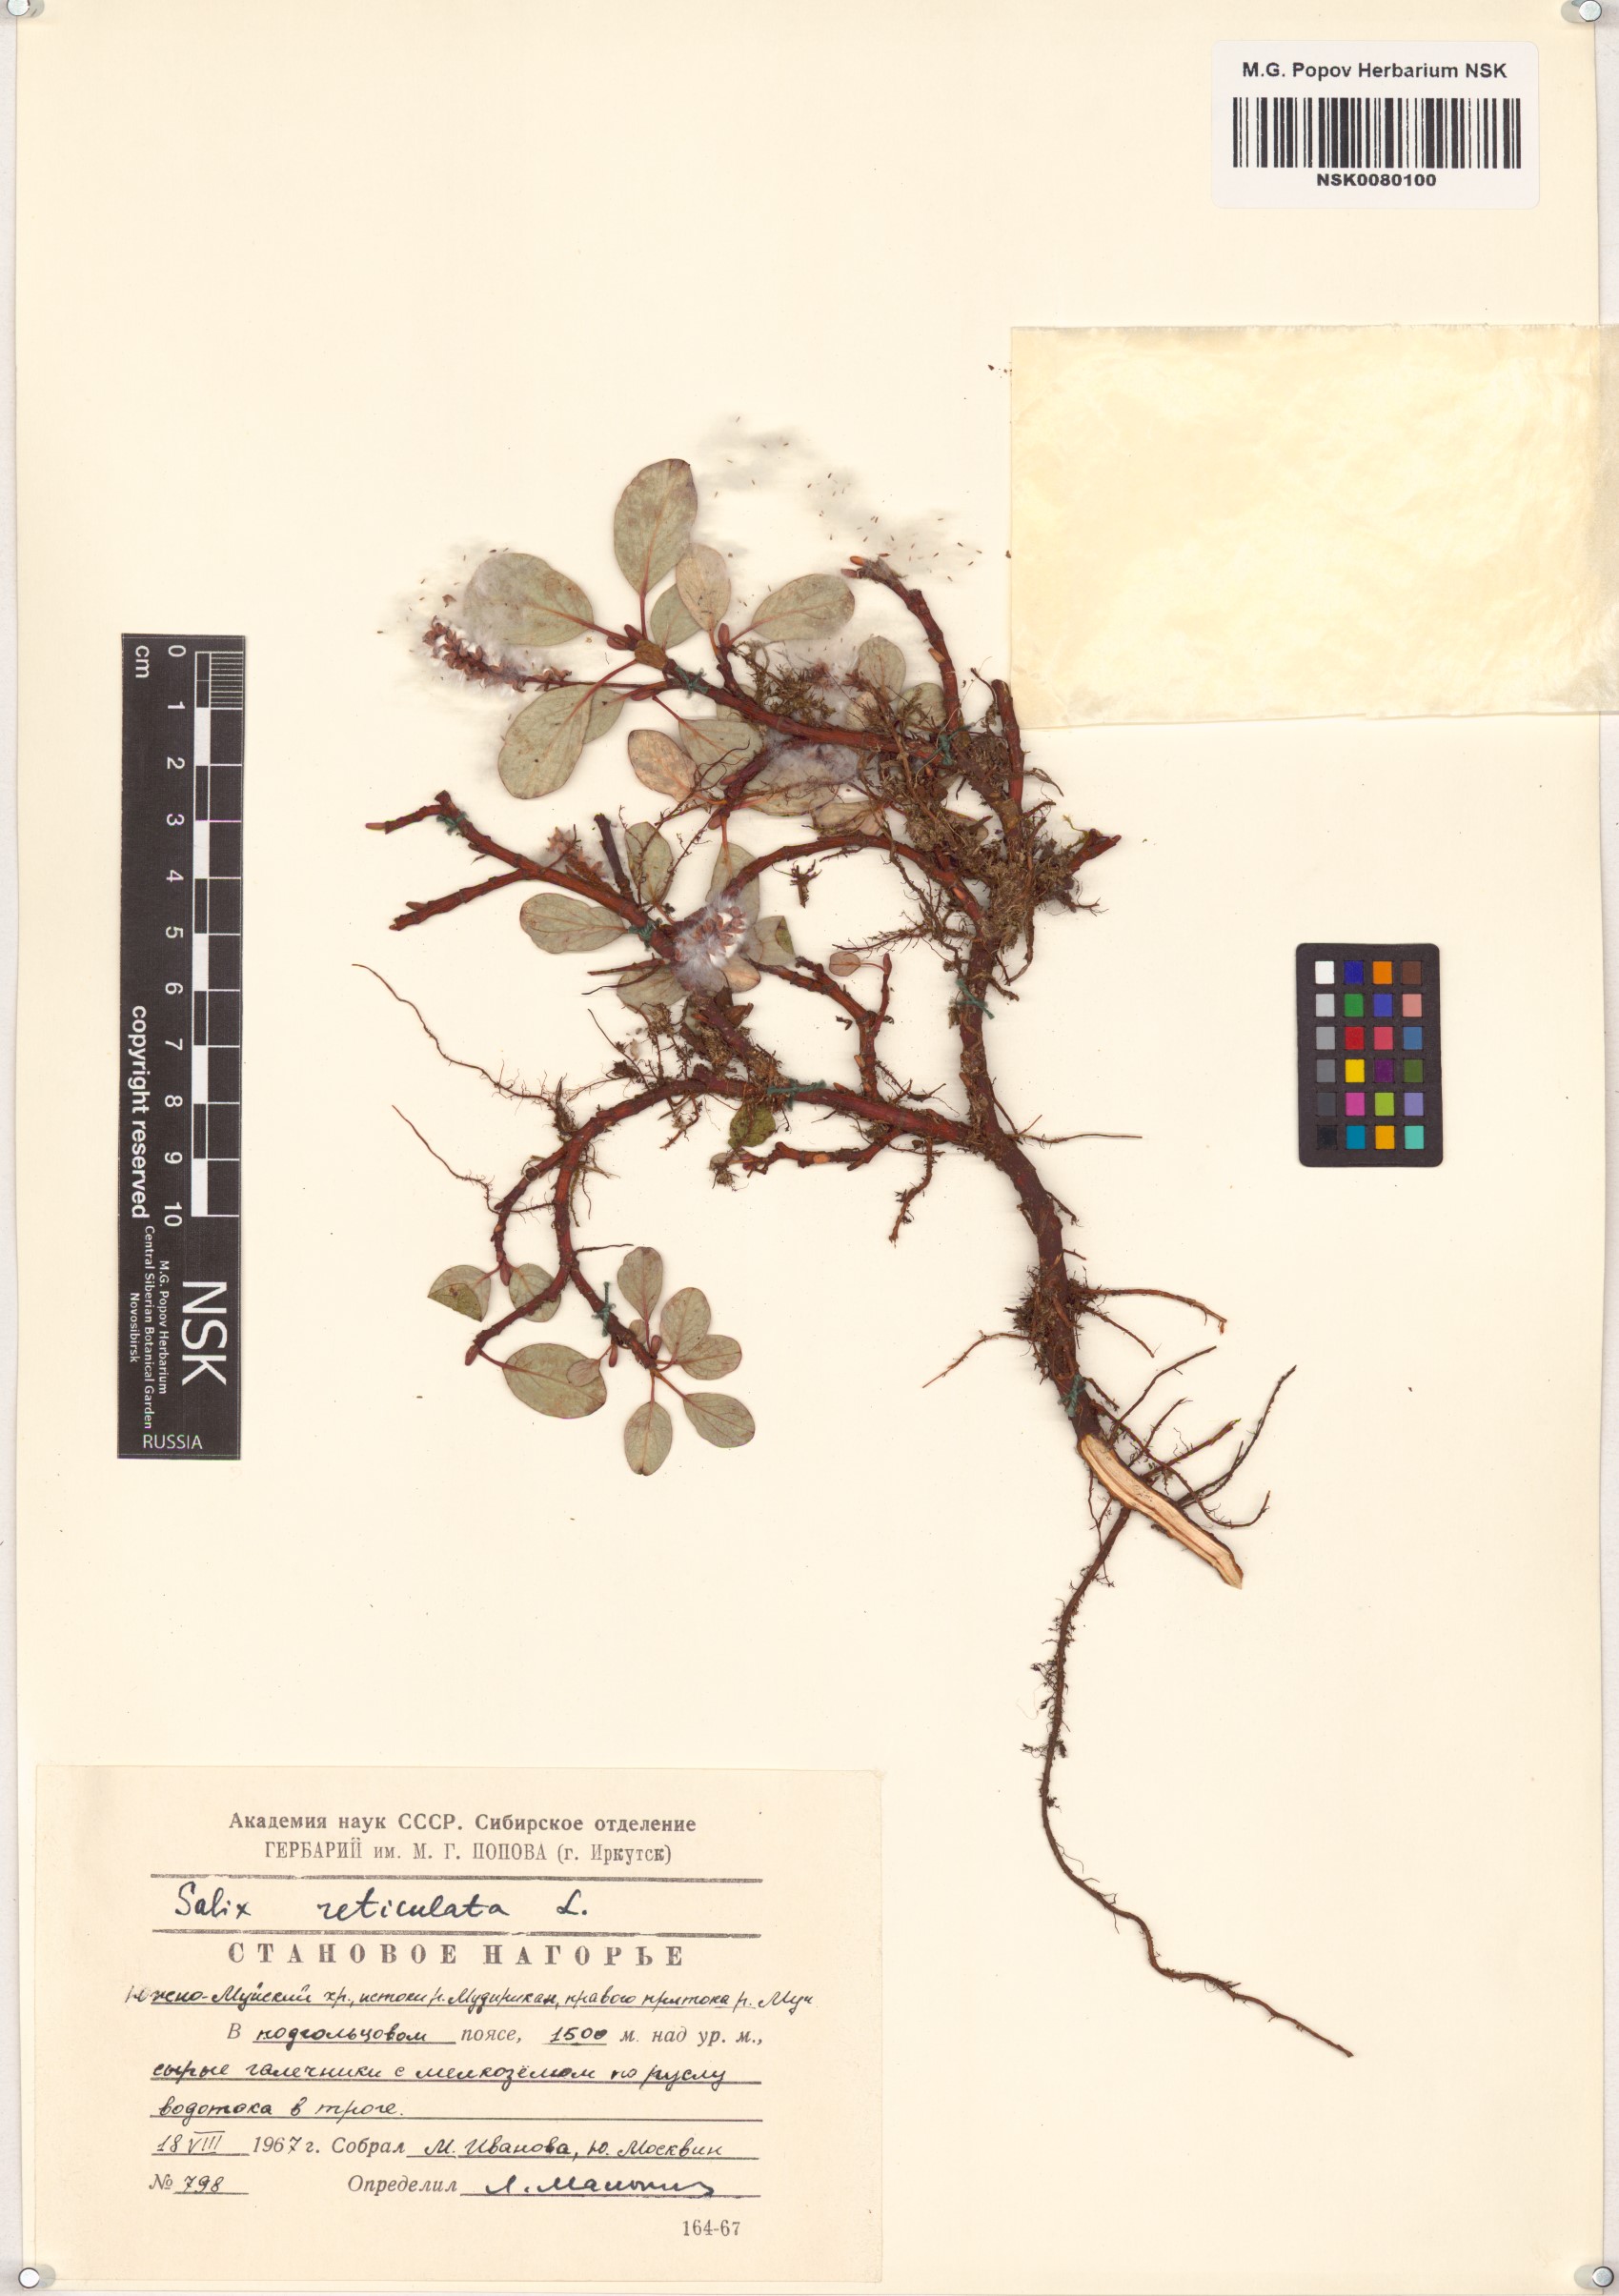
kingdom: Plantae
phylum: Tracheophyta
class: Magnoliopsida
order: Malpighiales
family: Salicaceae
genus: Salix
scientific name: Salix reticulata
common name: Net-leaved willow
